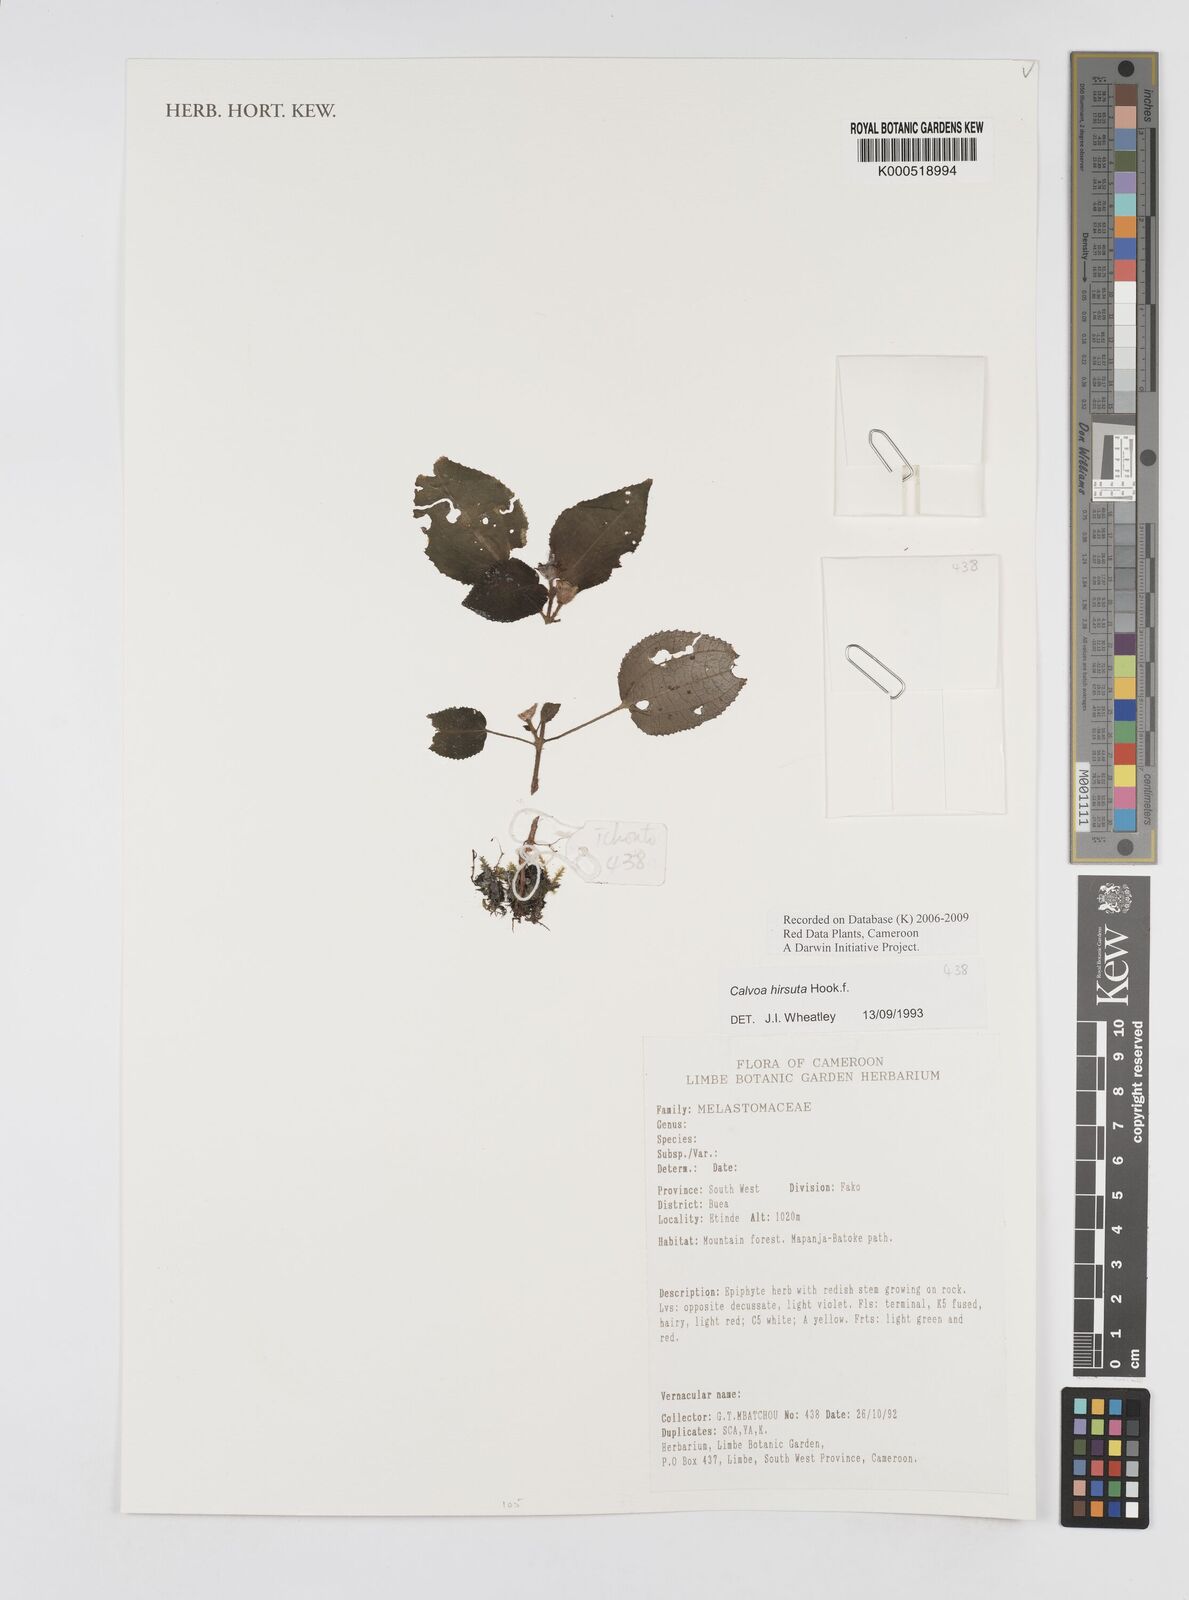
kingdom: Plantae
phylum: Tracheophyta
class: Magnoliopsida
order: Myrtales
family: Melastomataceae
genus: Calvoa
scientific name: Calvoa
